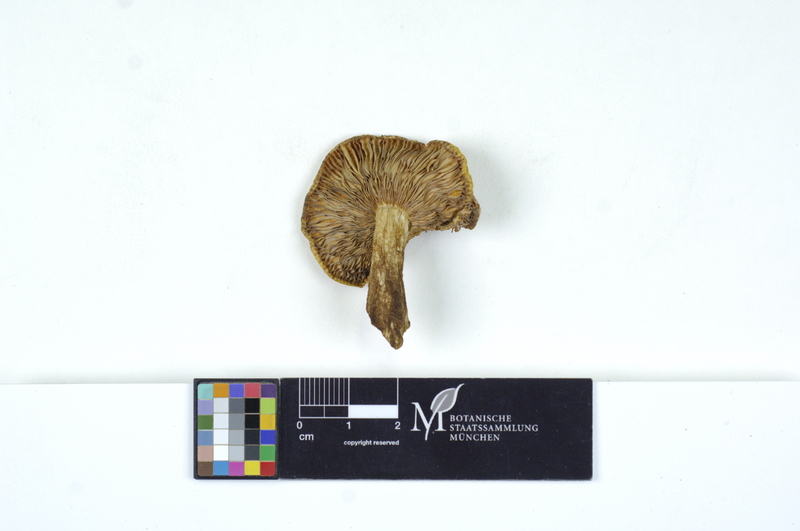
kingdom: Fungi
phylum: Basidiomycota
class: Agaricomycetes
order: Russulales
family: Russulaceae
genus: Russula
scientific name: Russula claroflava
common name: The yellow swamp brittlegill
